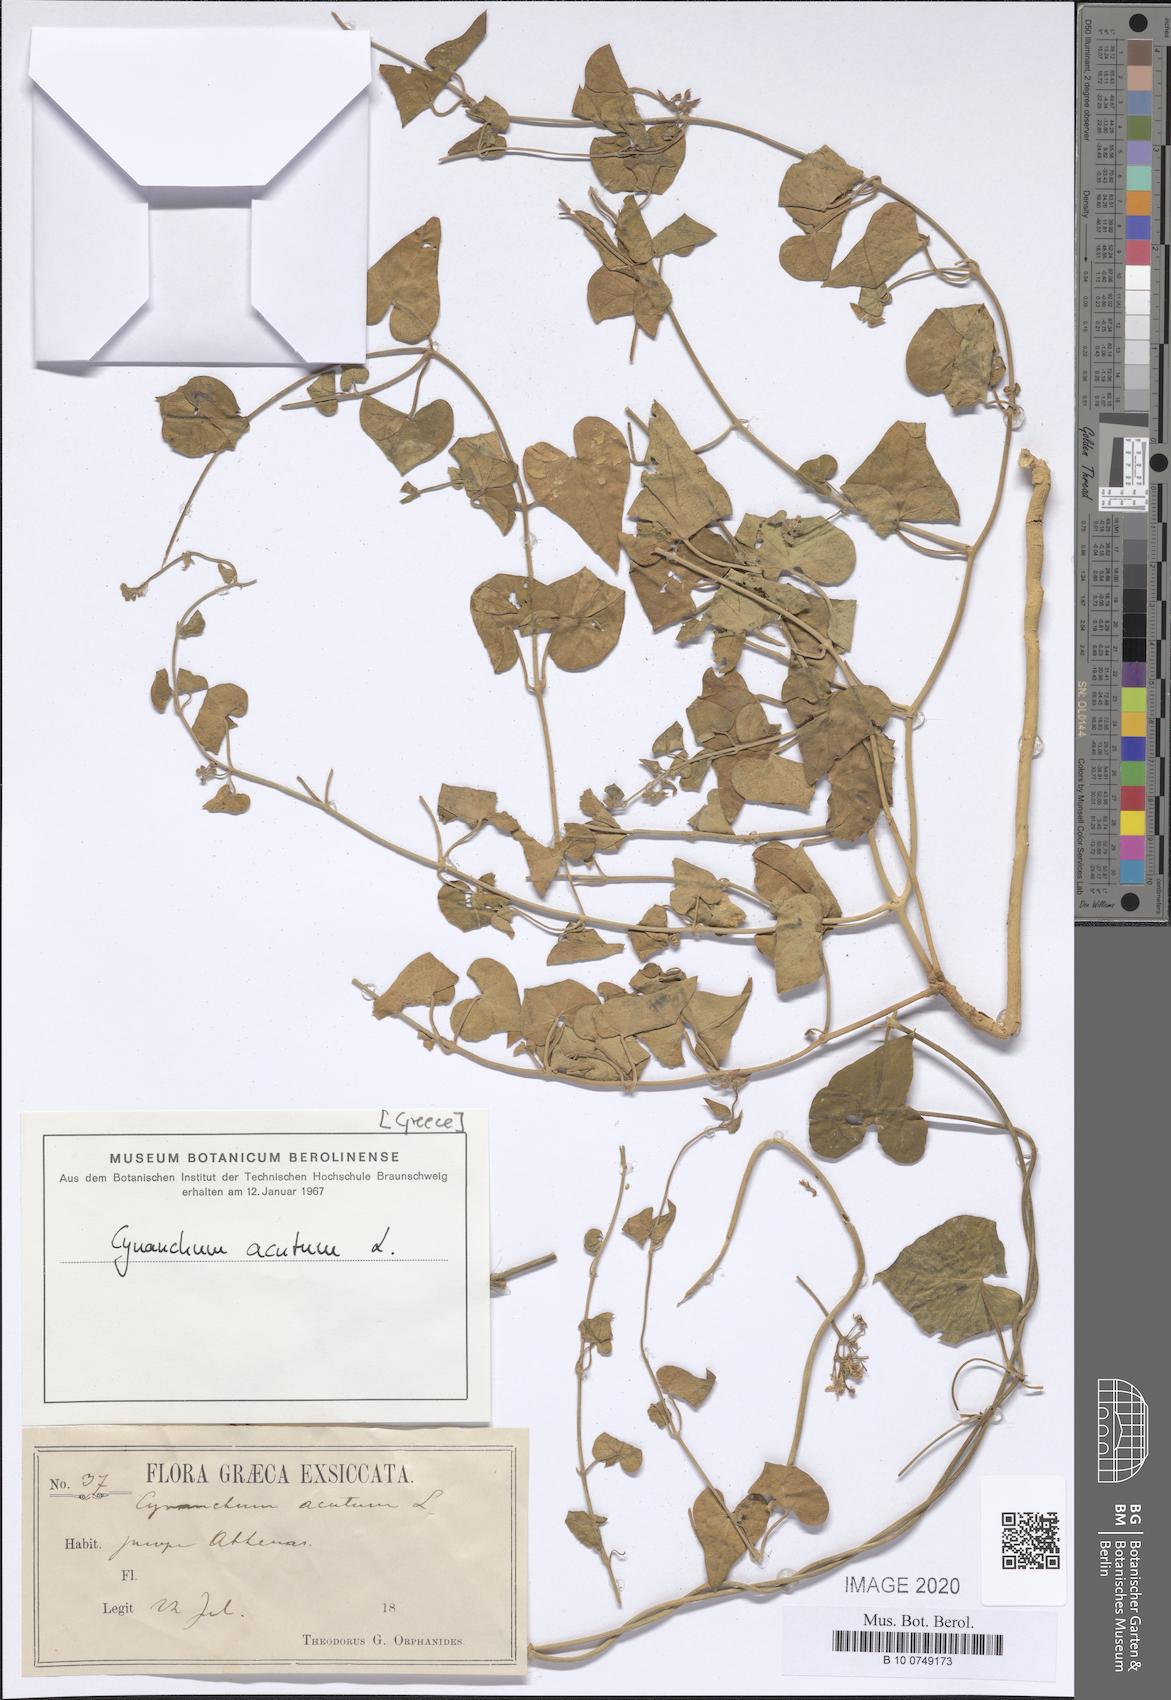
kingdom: Plantae
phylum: Tracheophyta
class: Magnoliopsida
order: Gentianales
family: Apocynaceae
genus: Cynanchum
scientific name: Cynanchum acutum
